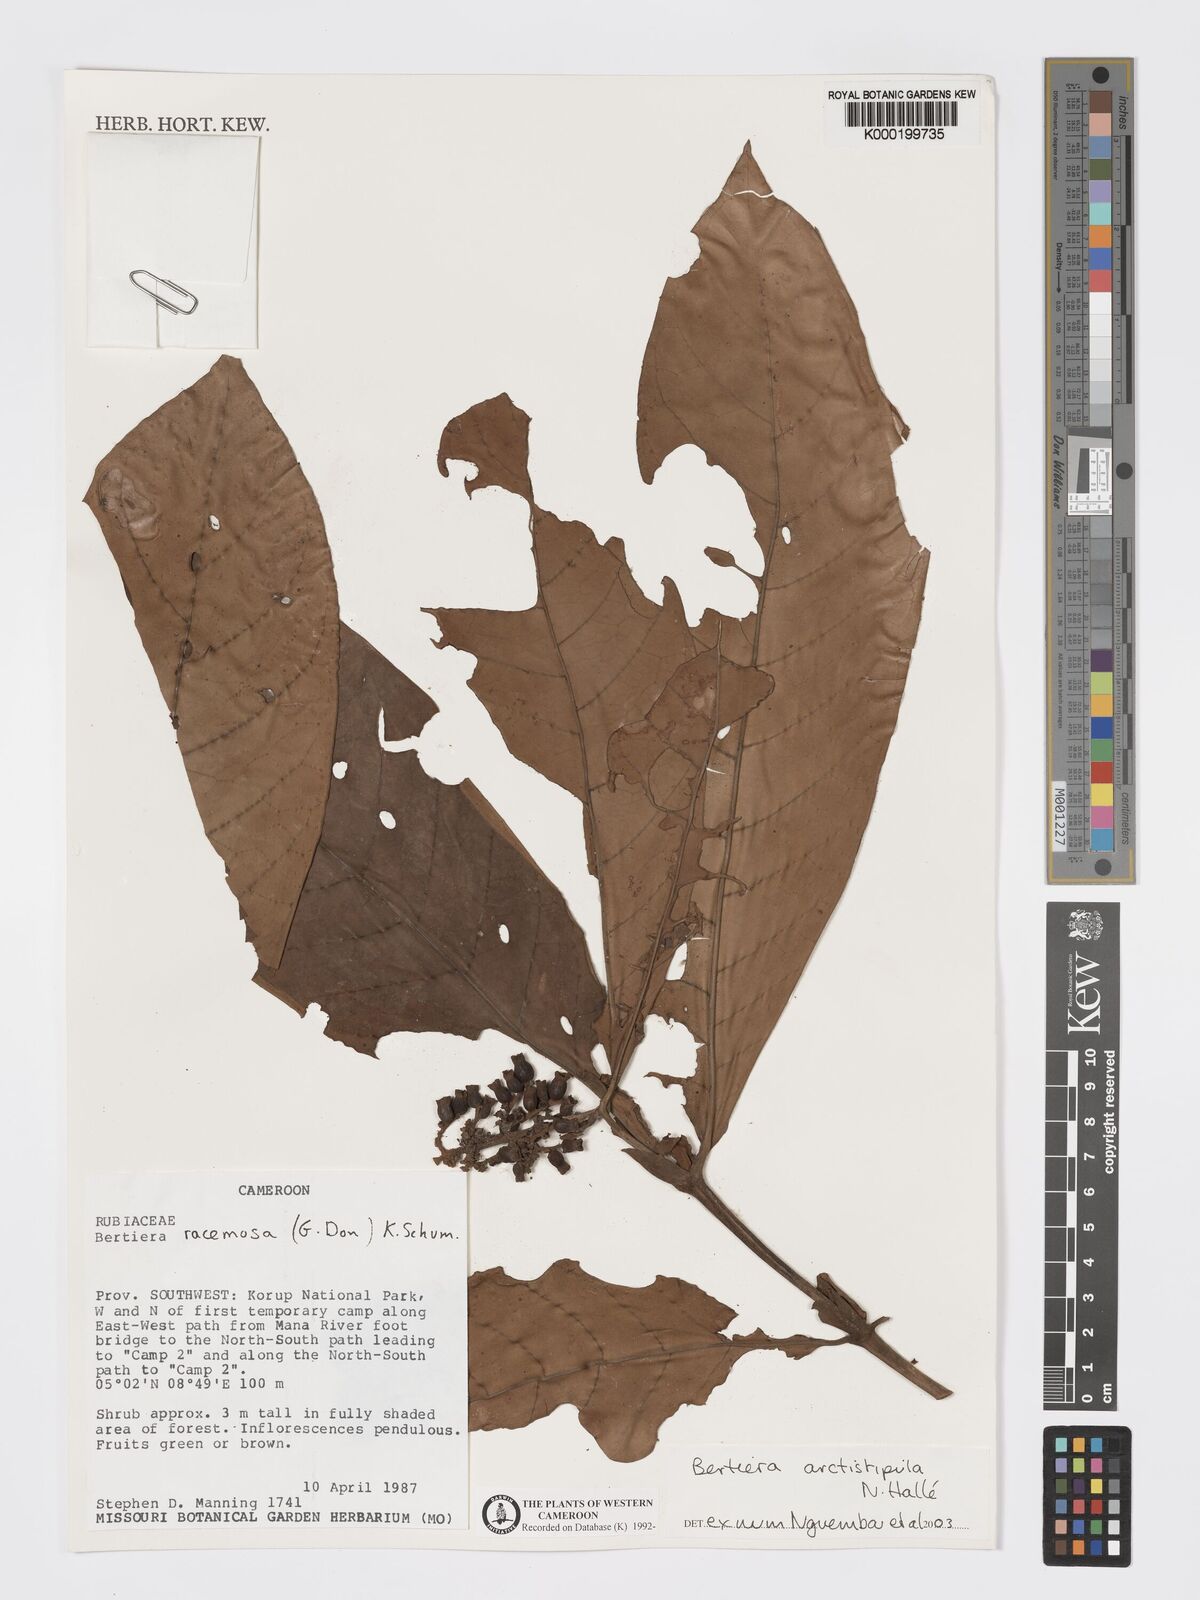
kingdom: Plantae
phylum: Tracheophyta
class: Magnoliopsida
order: Gentianales
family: Rubiaceae
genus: Bertiera
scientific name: Bertiera arctistipula
